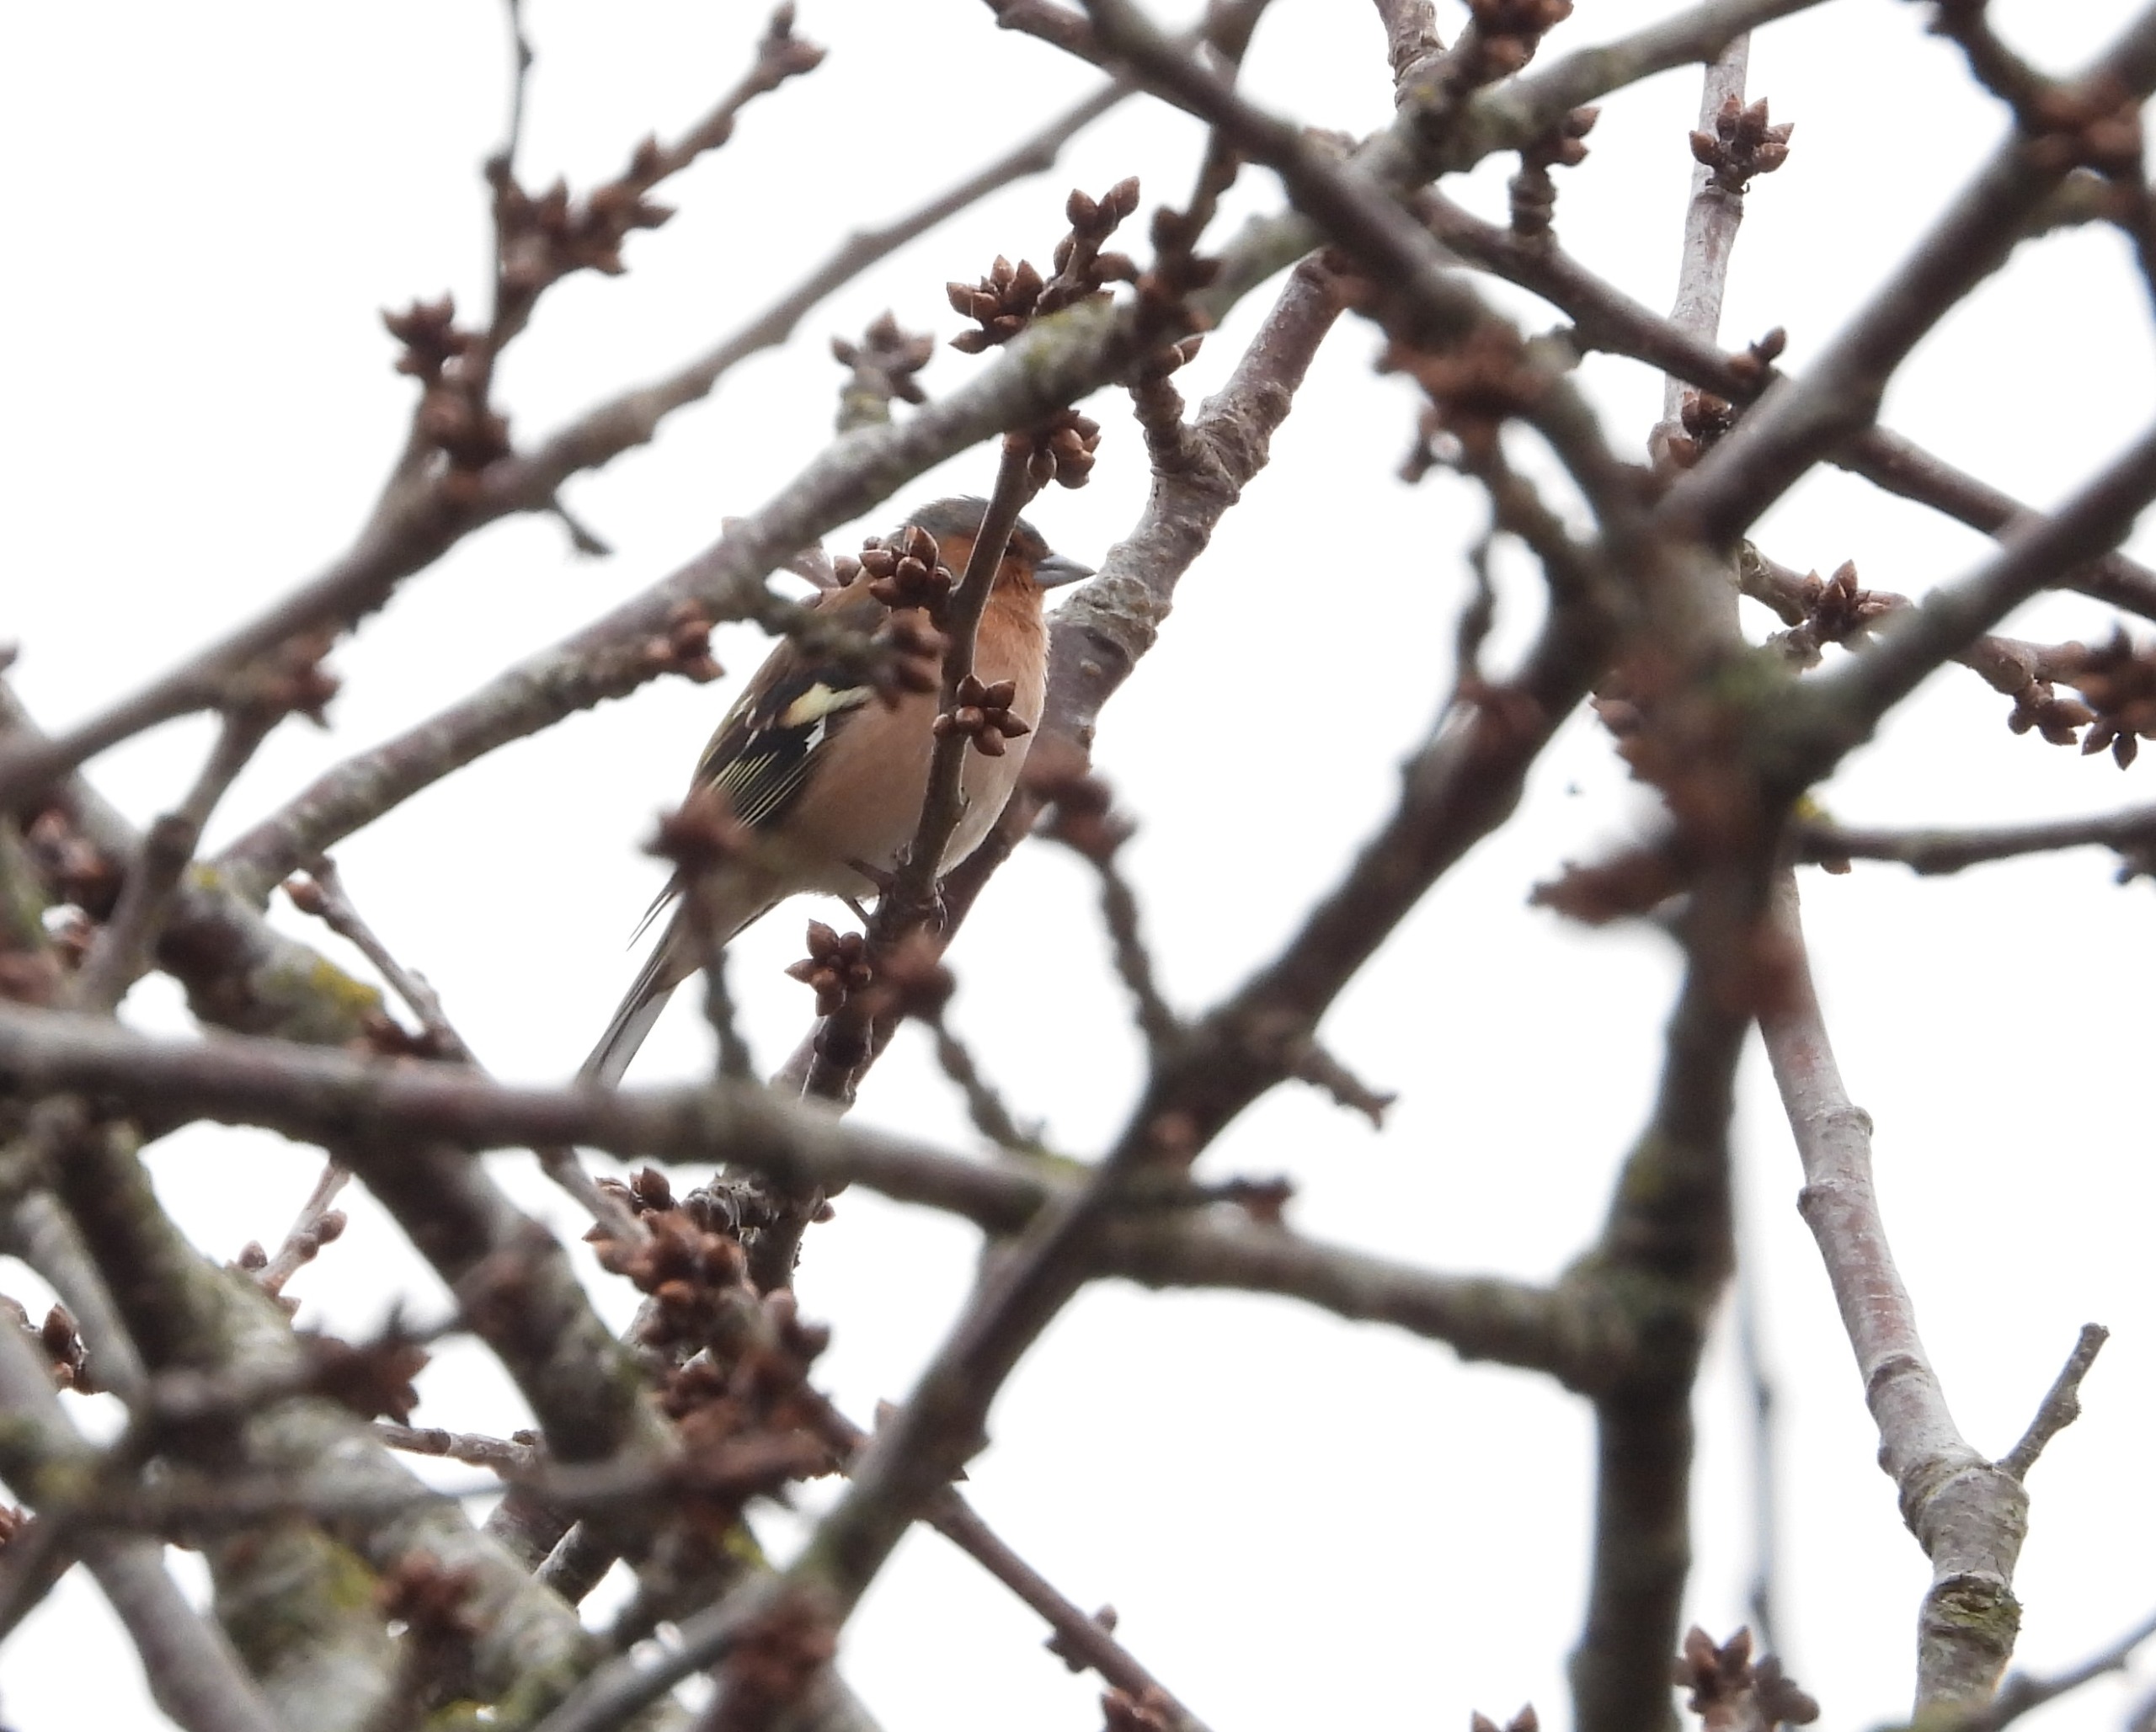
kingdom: Animalia
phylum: Chordata
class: Aves
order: Passeriformes
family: Fringillidae
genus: Fringilla
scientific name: Fringilla coelebs
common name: Bogfinke
